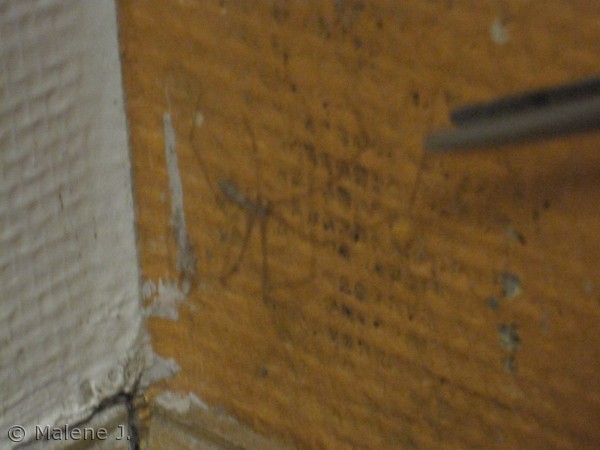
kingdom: Animalia
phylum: Arthropoda
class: Arachnida
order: Araneae
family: Pholcidae
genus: Pholcus
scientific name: Pholcus phalangioides
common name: Mejeredderkop
